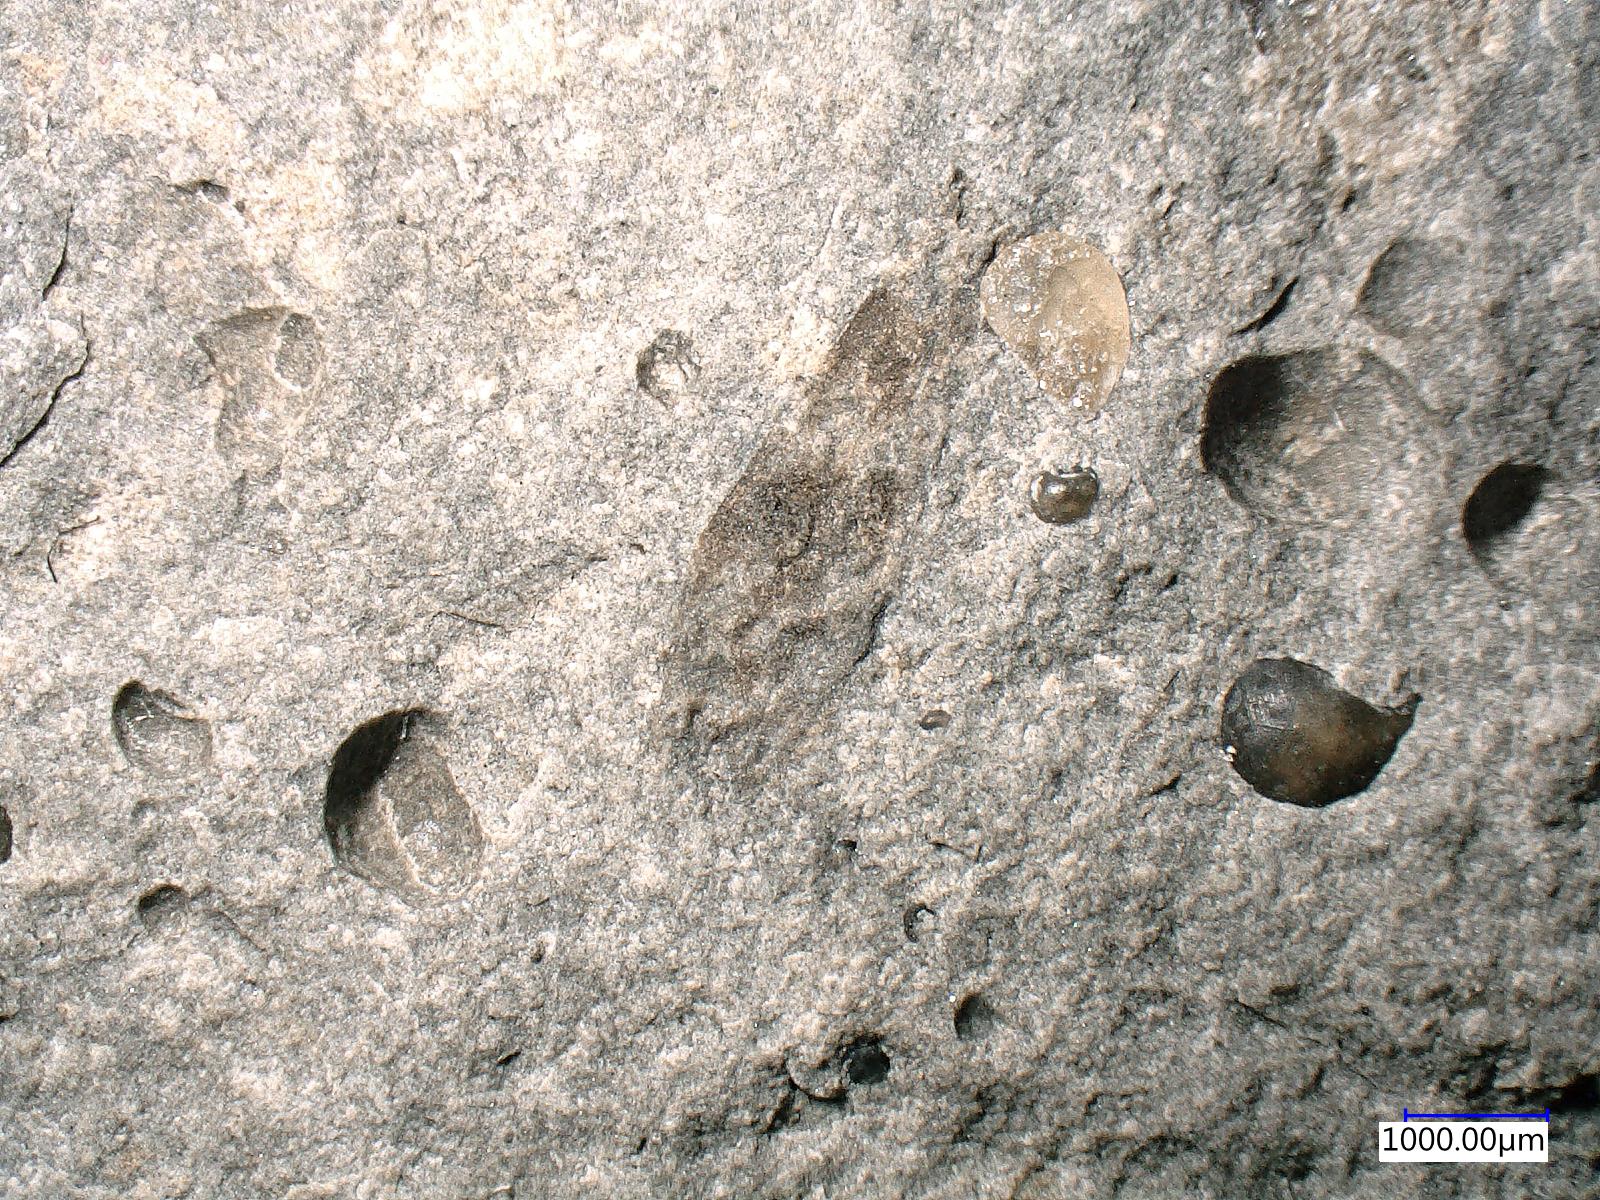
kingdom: Animalia
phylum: Arthropoda
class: Insecta
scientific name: Insecta
